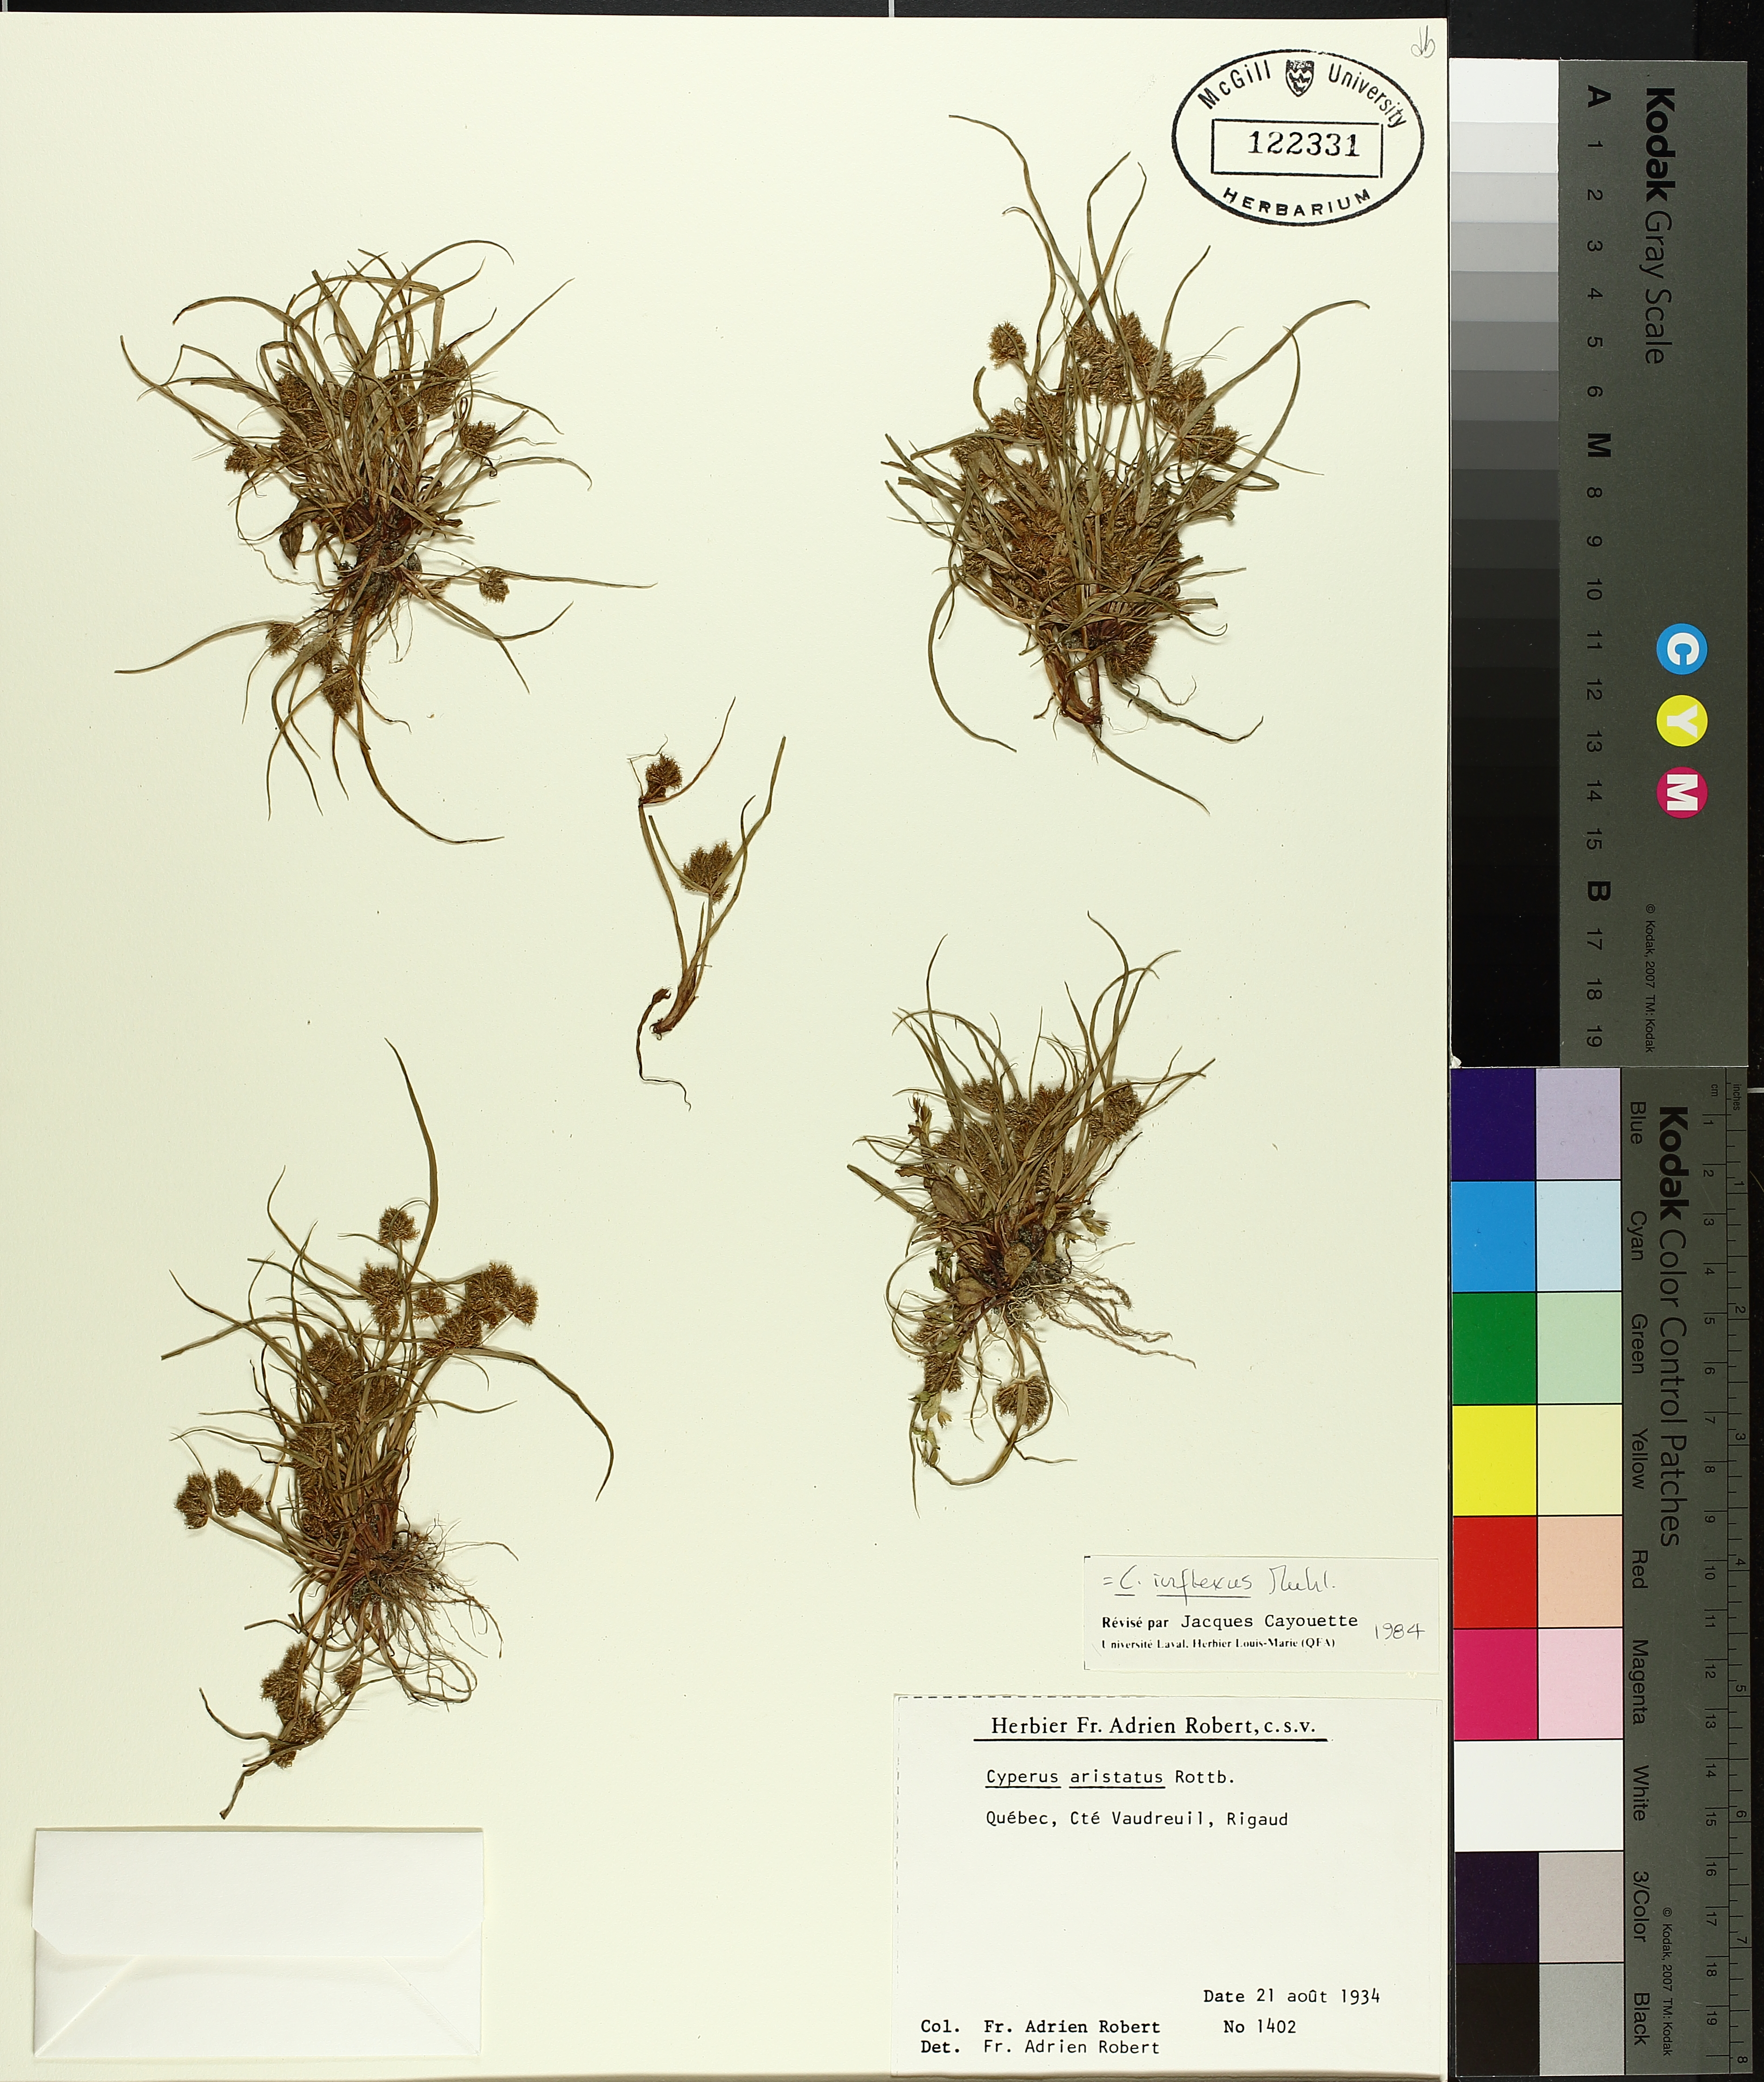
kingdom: Plantae
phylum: Tracheophyta
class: Liliopsida
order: Poales
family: Cyperaceae
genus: Cyperus
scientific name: Cyperus squarrosus
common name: Awned cyperus
